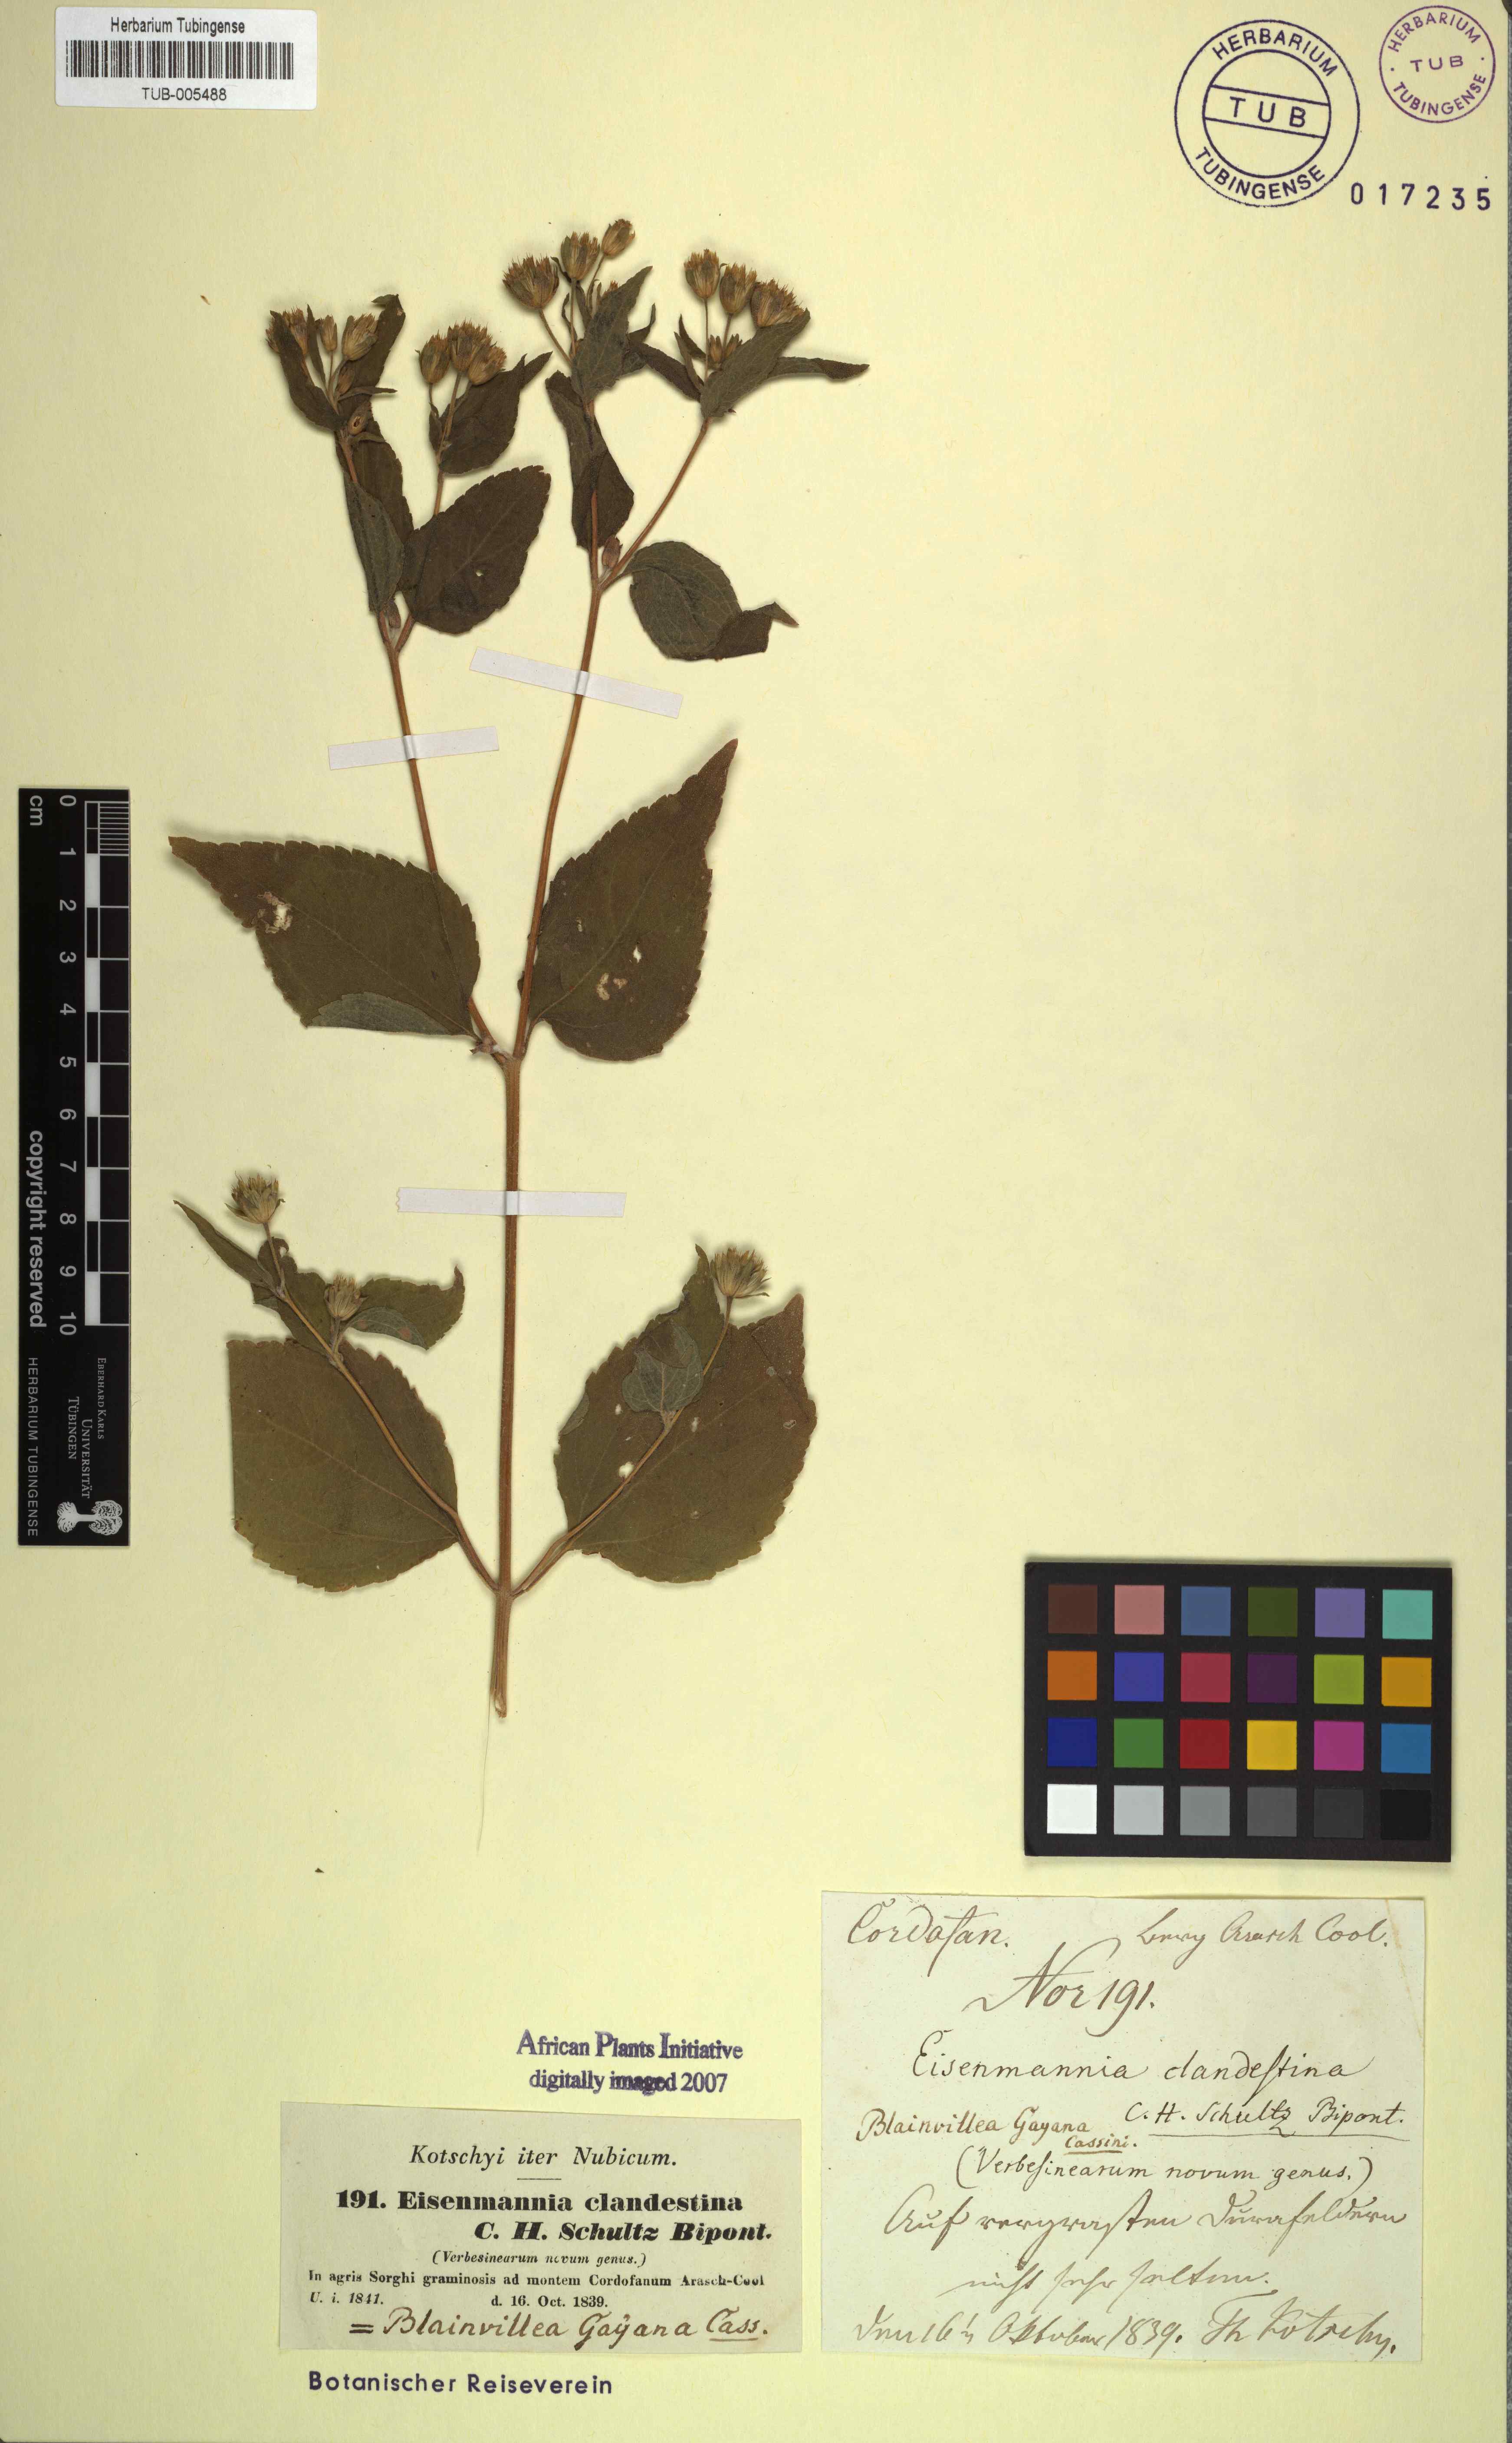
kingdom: Plantae
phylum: Tracheophyta
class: Magnoliopsida
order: Asterales
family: Asteraceae
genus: Blainvillea
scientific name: Blainvillea gayana
